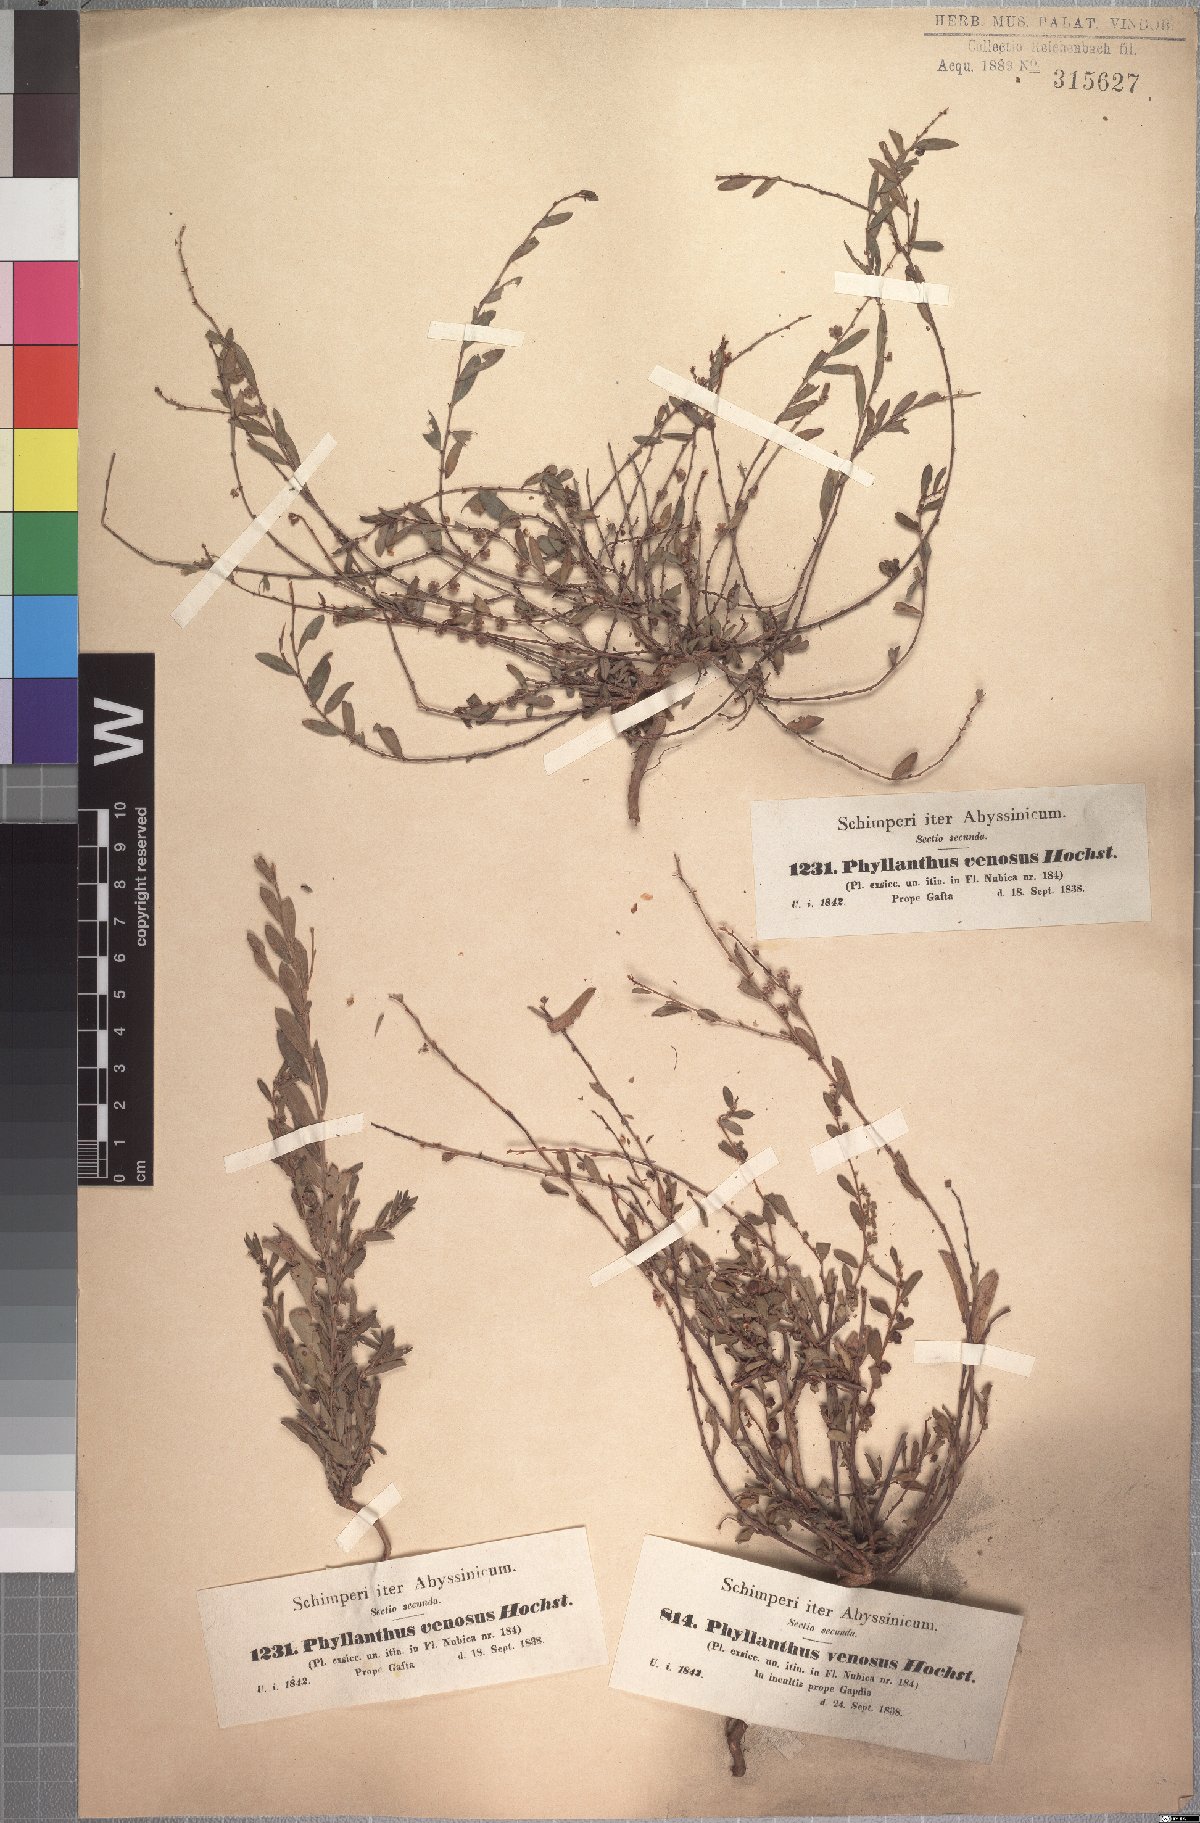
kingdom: Plantae
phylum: Tracheophyta
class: Magnoliopsida
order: Malpighiales
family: Phyllanthaceae
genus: Phyllanthus
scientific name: Phyllanthus maderaspatensis
